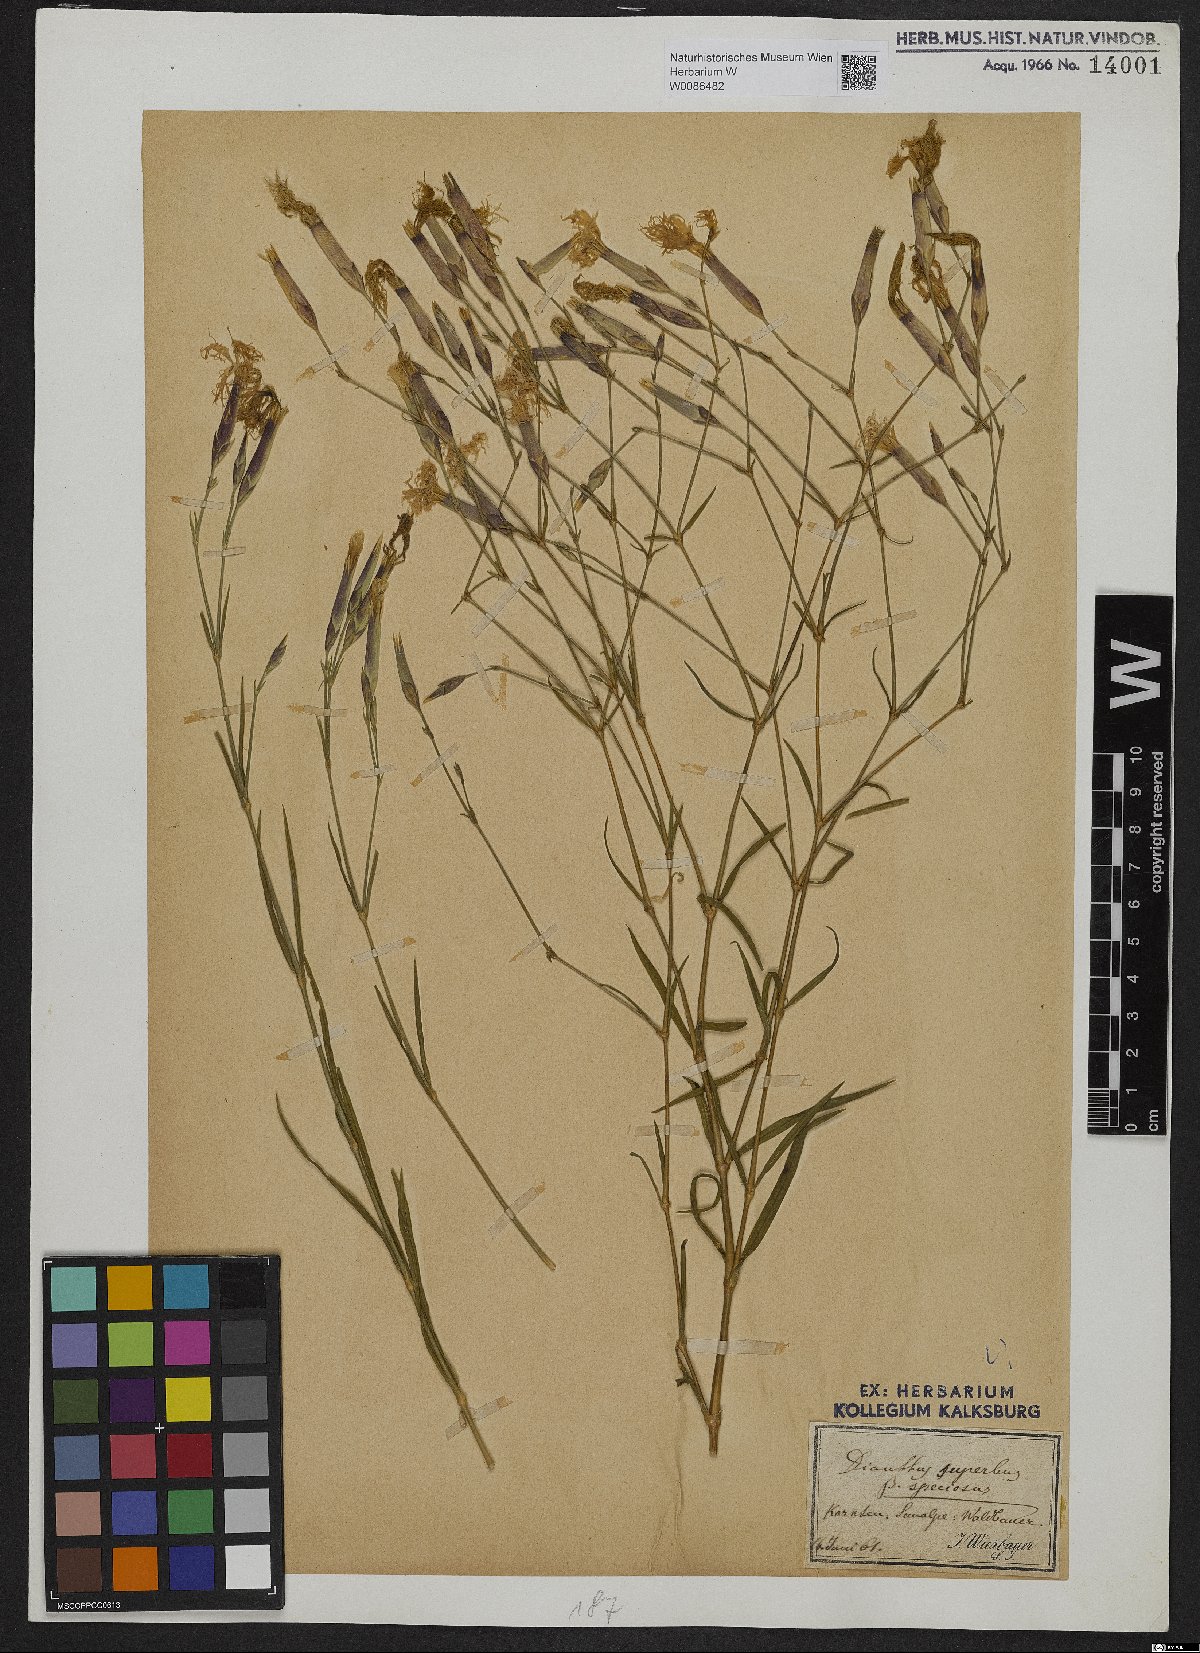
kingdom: Plantae
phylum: Tracheophyta
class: Magnoliopsida
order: Caryophyllales
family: Caryophyllaceae
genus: Dianthus
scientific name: Dianthus superbus
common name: Fringed pink
